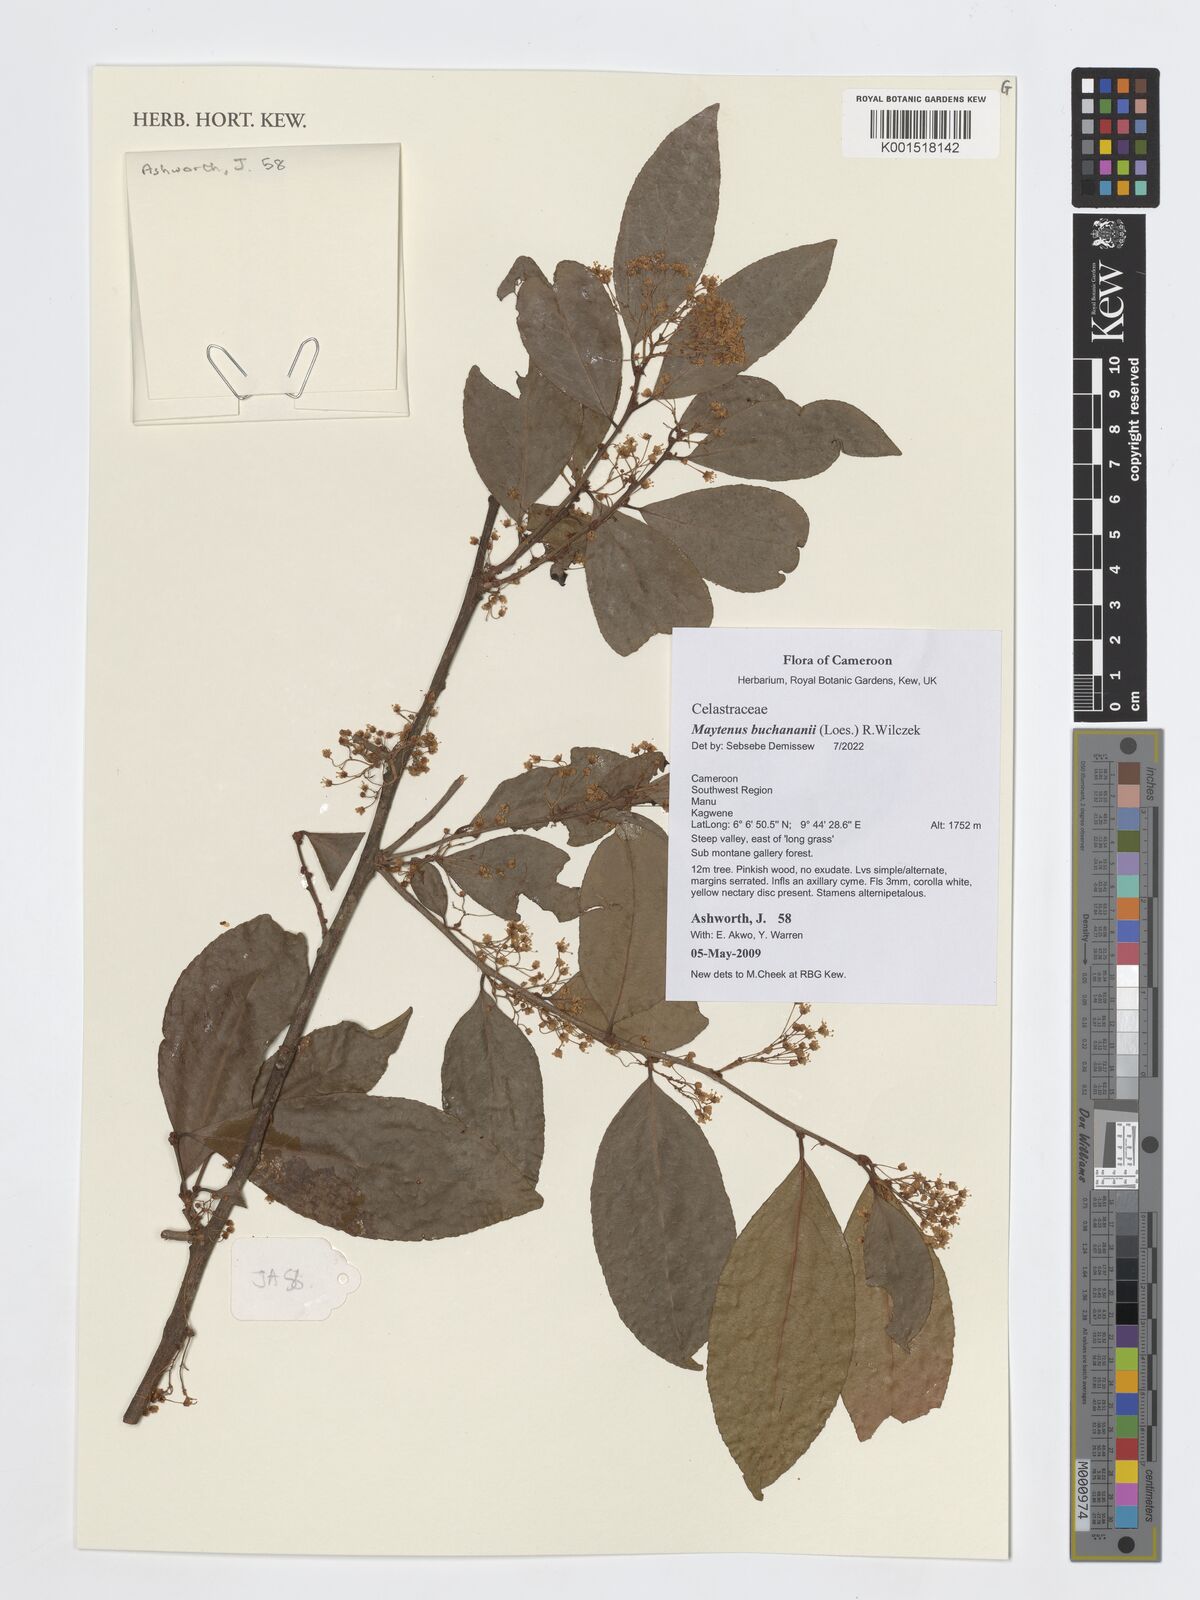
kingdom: Plantae
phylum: Tracheophyta
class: Magnoliopsida
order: Celastrales
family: Celastraceae
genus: Gymnosporia
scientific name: Gymnosporia buchananii
